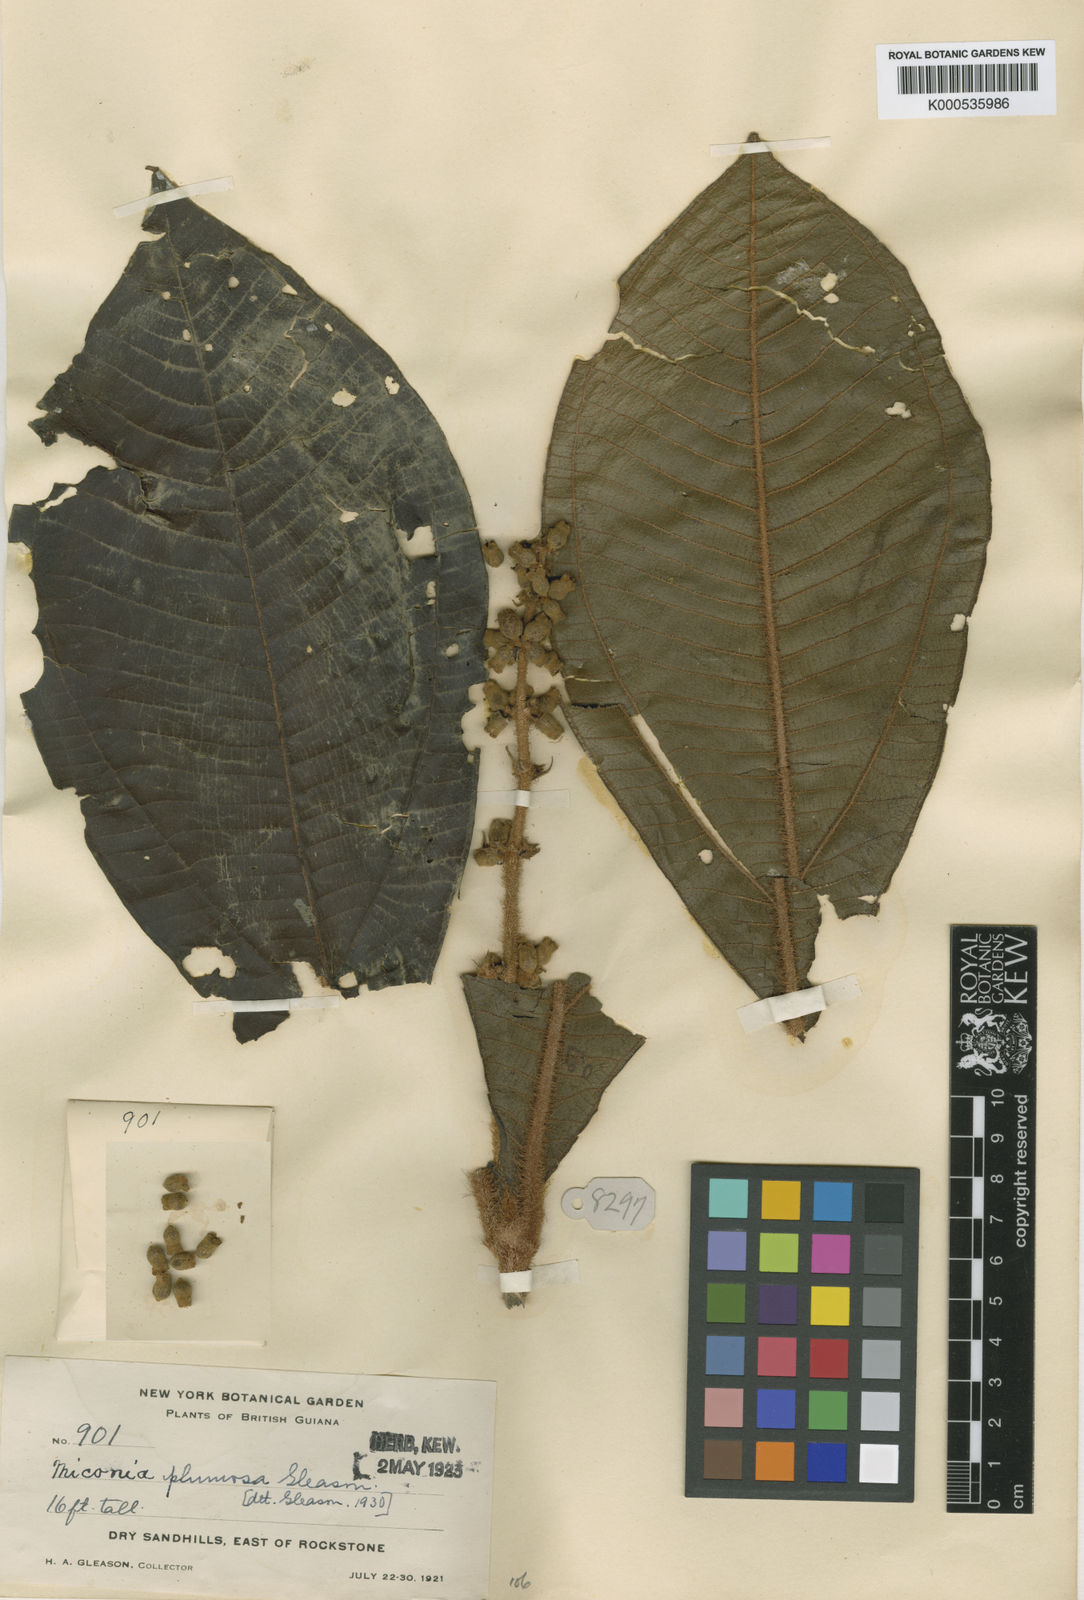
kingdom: Plantae
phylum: Tracheophyta
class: Magnoliopsida
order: Myrtales
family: Melastomataceae
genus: Miconia
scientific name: Miconia rugosa
